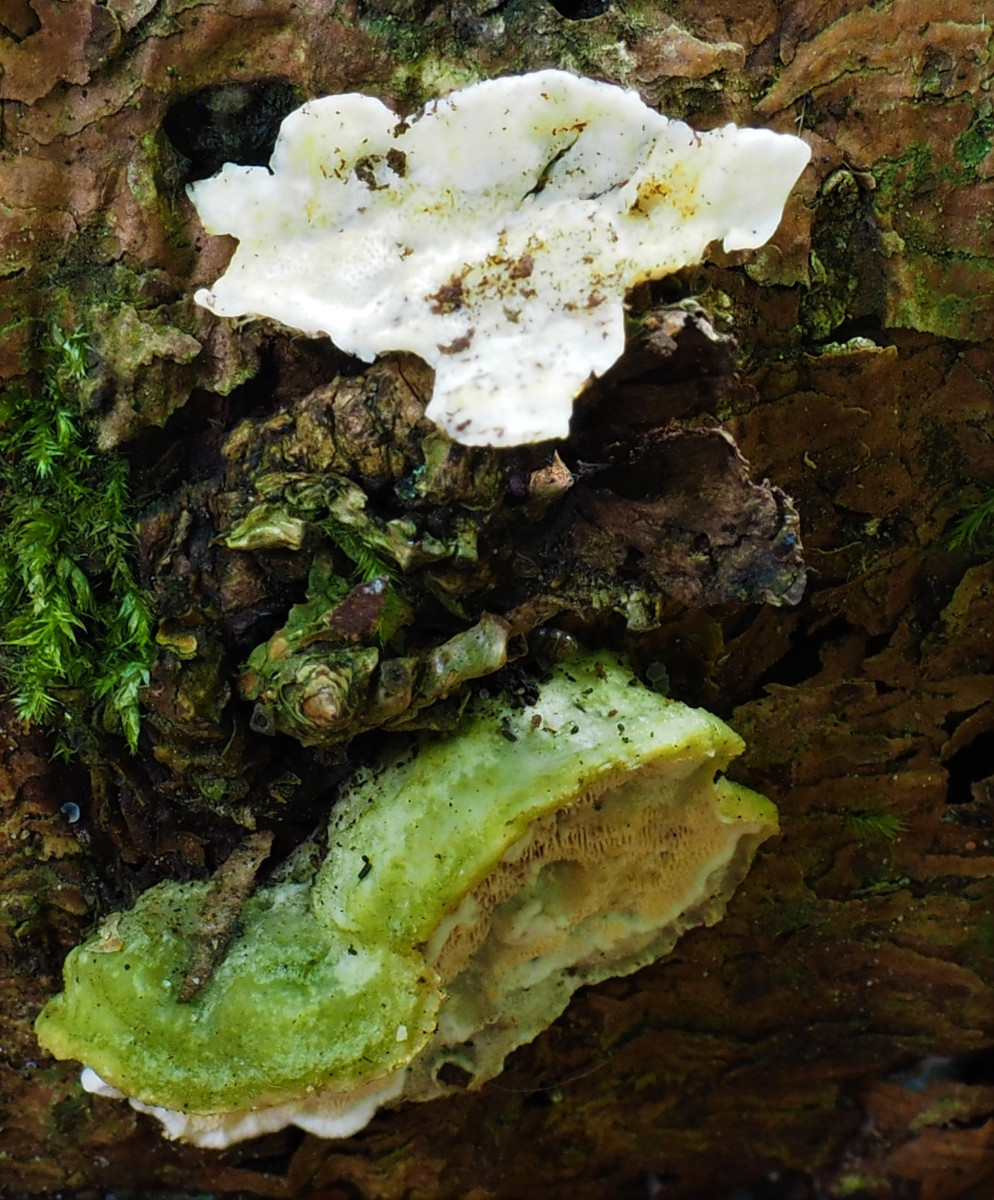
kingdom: Fungi
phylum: Basidiomycota
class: Agaricomycetes
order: Polyporales
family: Incrustoporiaceae
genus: Skeletocutis
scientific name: Skeletocutis amorpha
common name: orange krystalporesvamp
